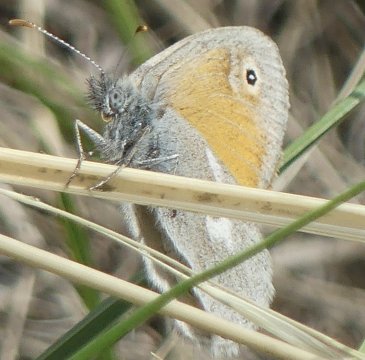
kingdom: Animalia
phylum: Arthropoda
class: Insecta
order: Lepidoptera
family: Nymphalidae
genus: Coenonympha
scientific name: Coenonympha tullia
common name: Large Heath
